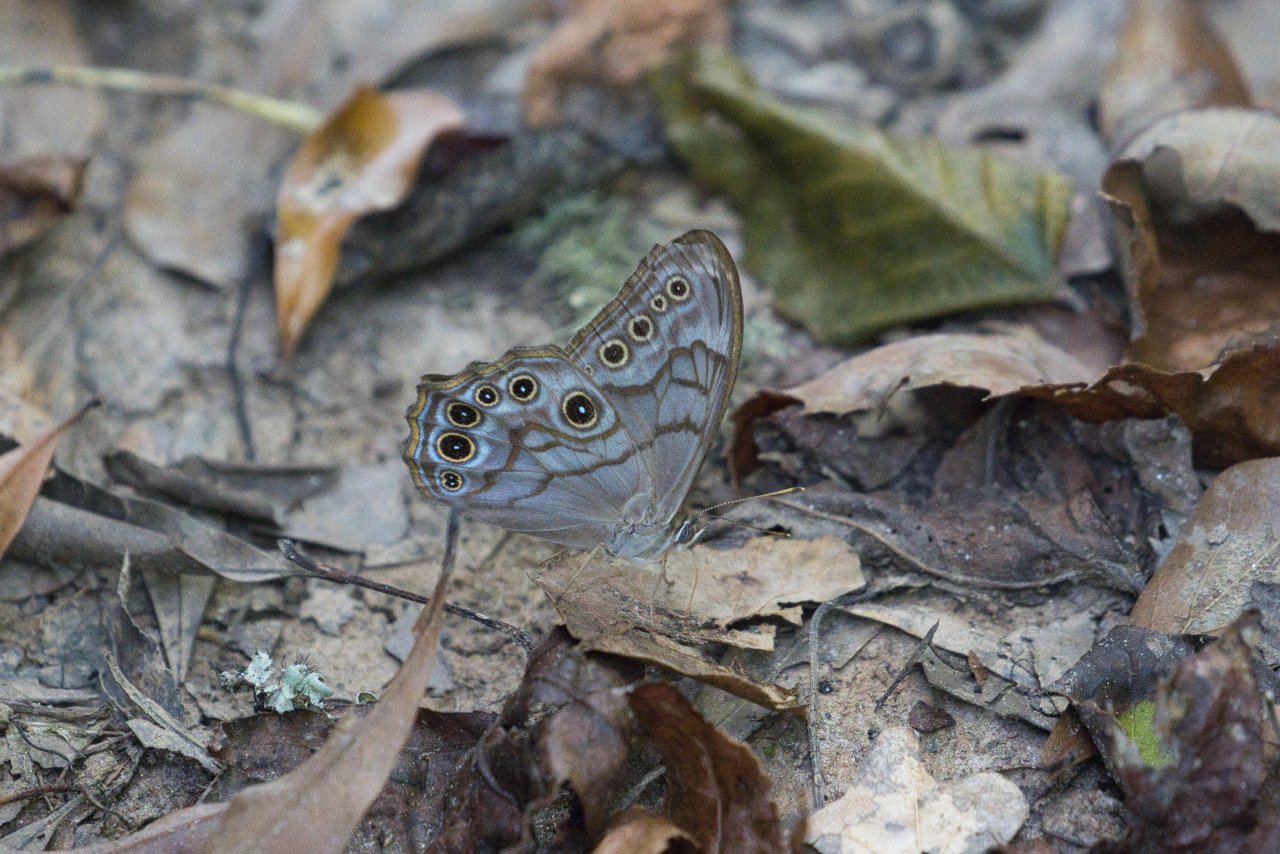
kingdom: Animalia
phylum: Arthropoda
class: Insecta
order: Lepidoptera
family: Nymphalidae
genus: Lethe
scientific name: Lethe creola
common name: Creole Pearly-Eye
